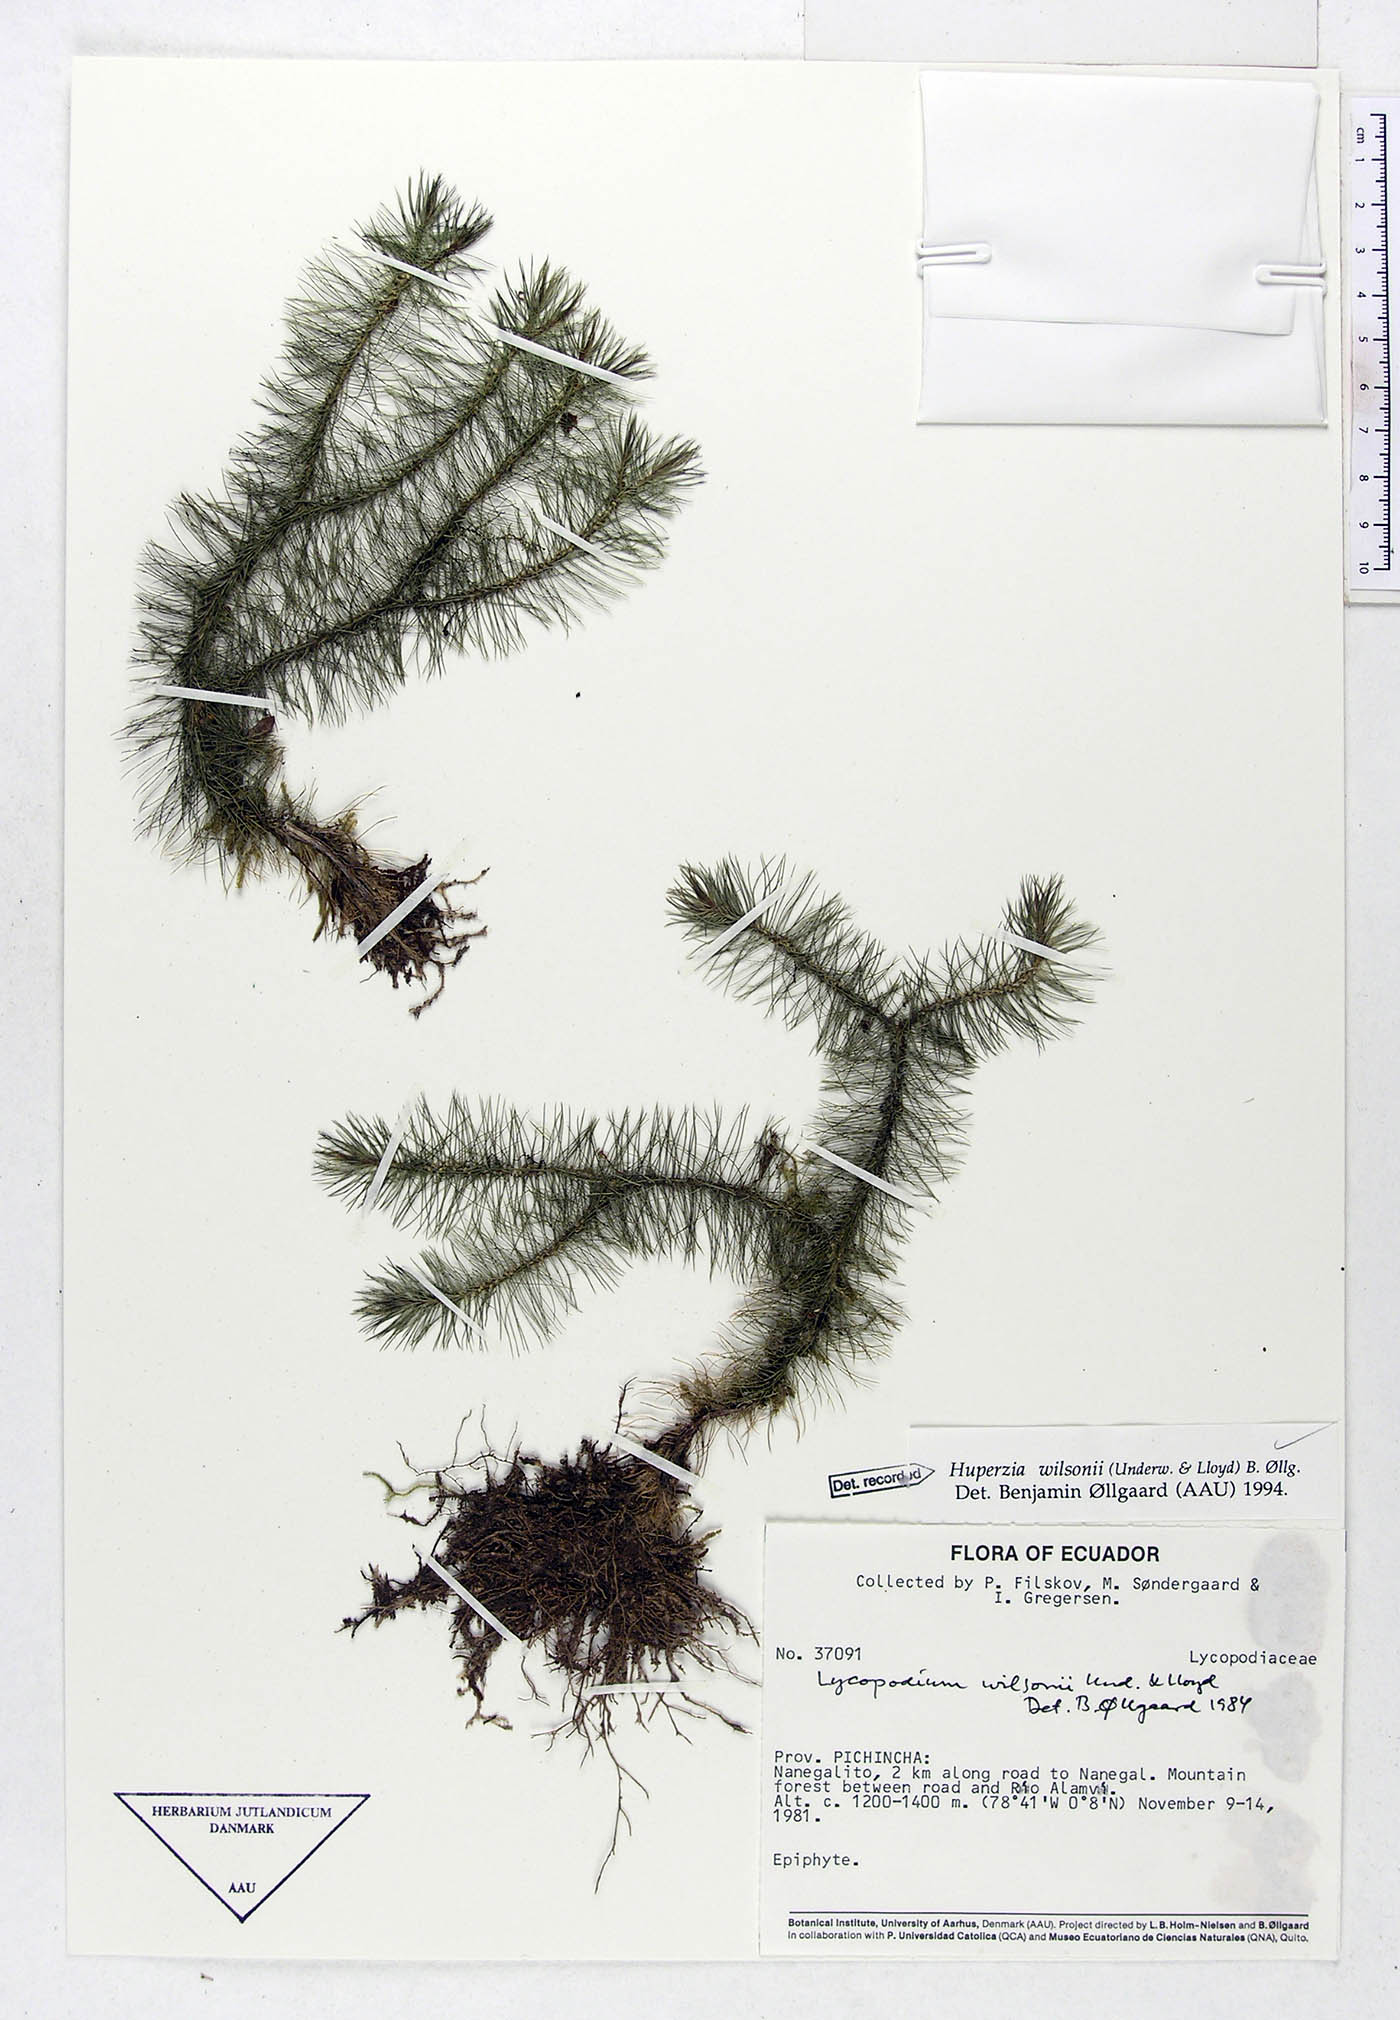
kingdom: Plantae
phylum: Tracheophyta
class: Lycopodiopsida
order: Lycopodiales
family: Lycopodiaceae
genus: Phlegmariurus
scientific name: Phlegmariurus wilsonii
